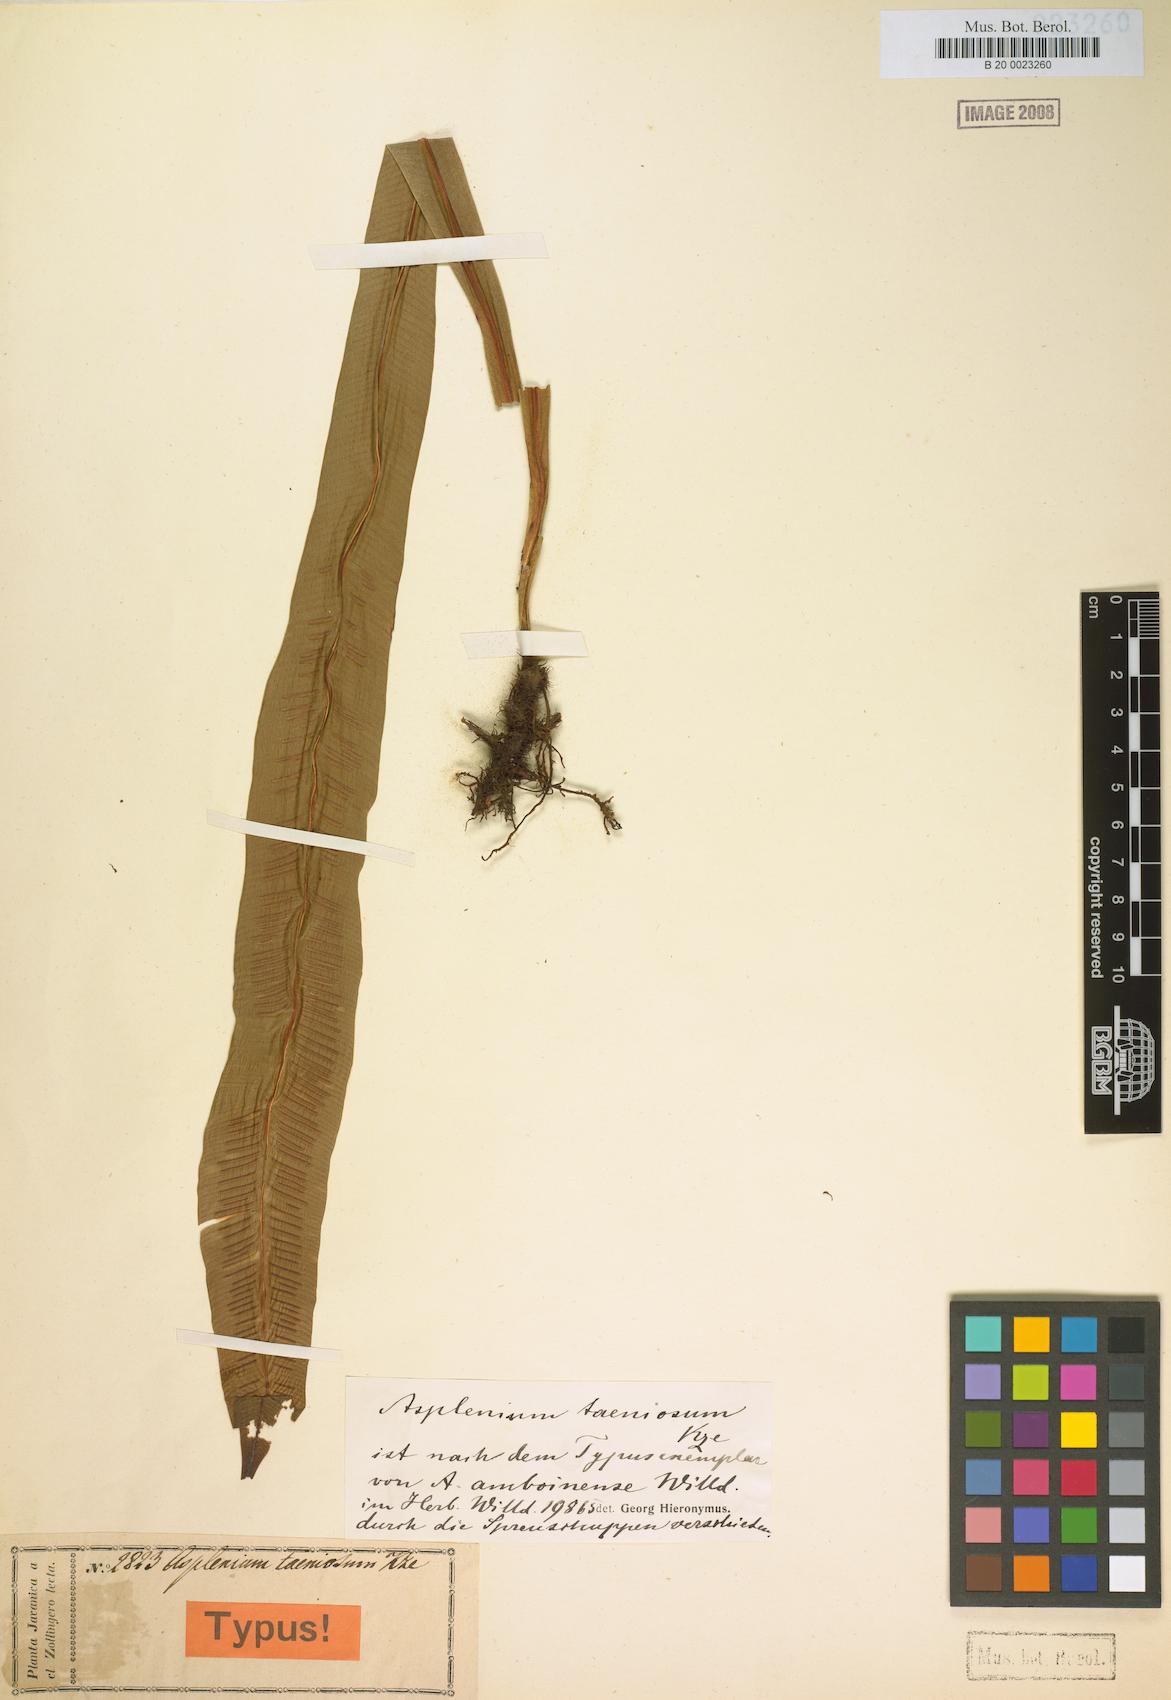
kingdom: Plantae
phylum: Tracheophyta
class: Polypodiopsida
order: Polypodiales
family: Aspleniaceae
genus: Asplenium
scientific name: Asplenium amboinense
